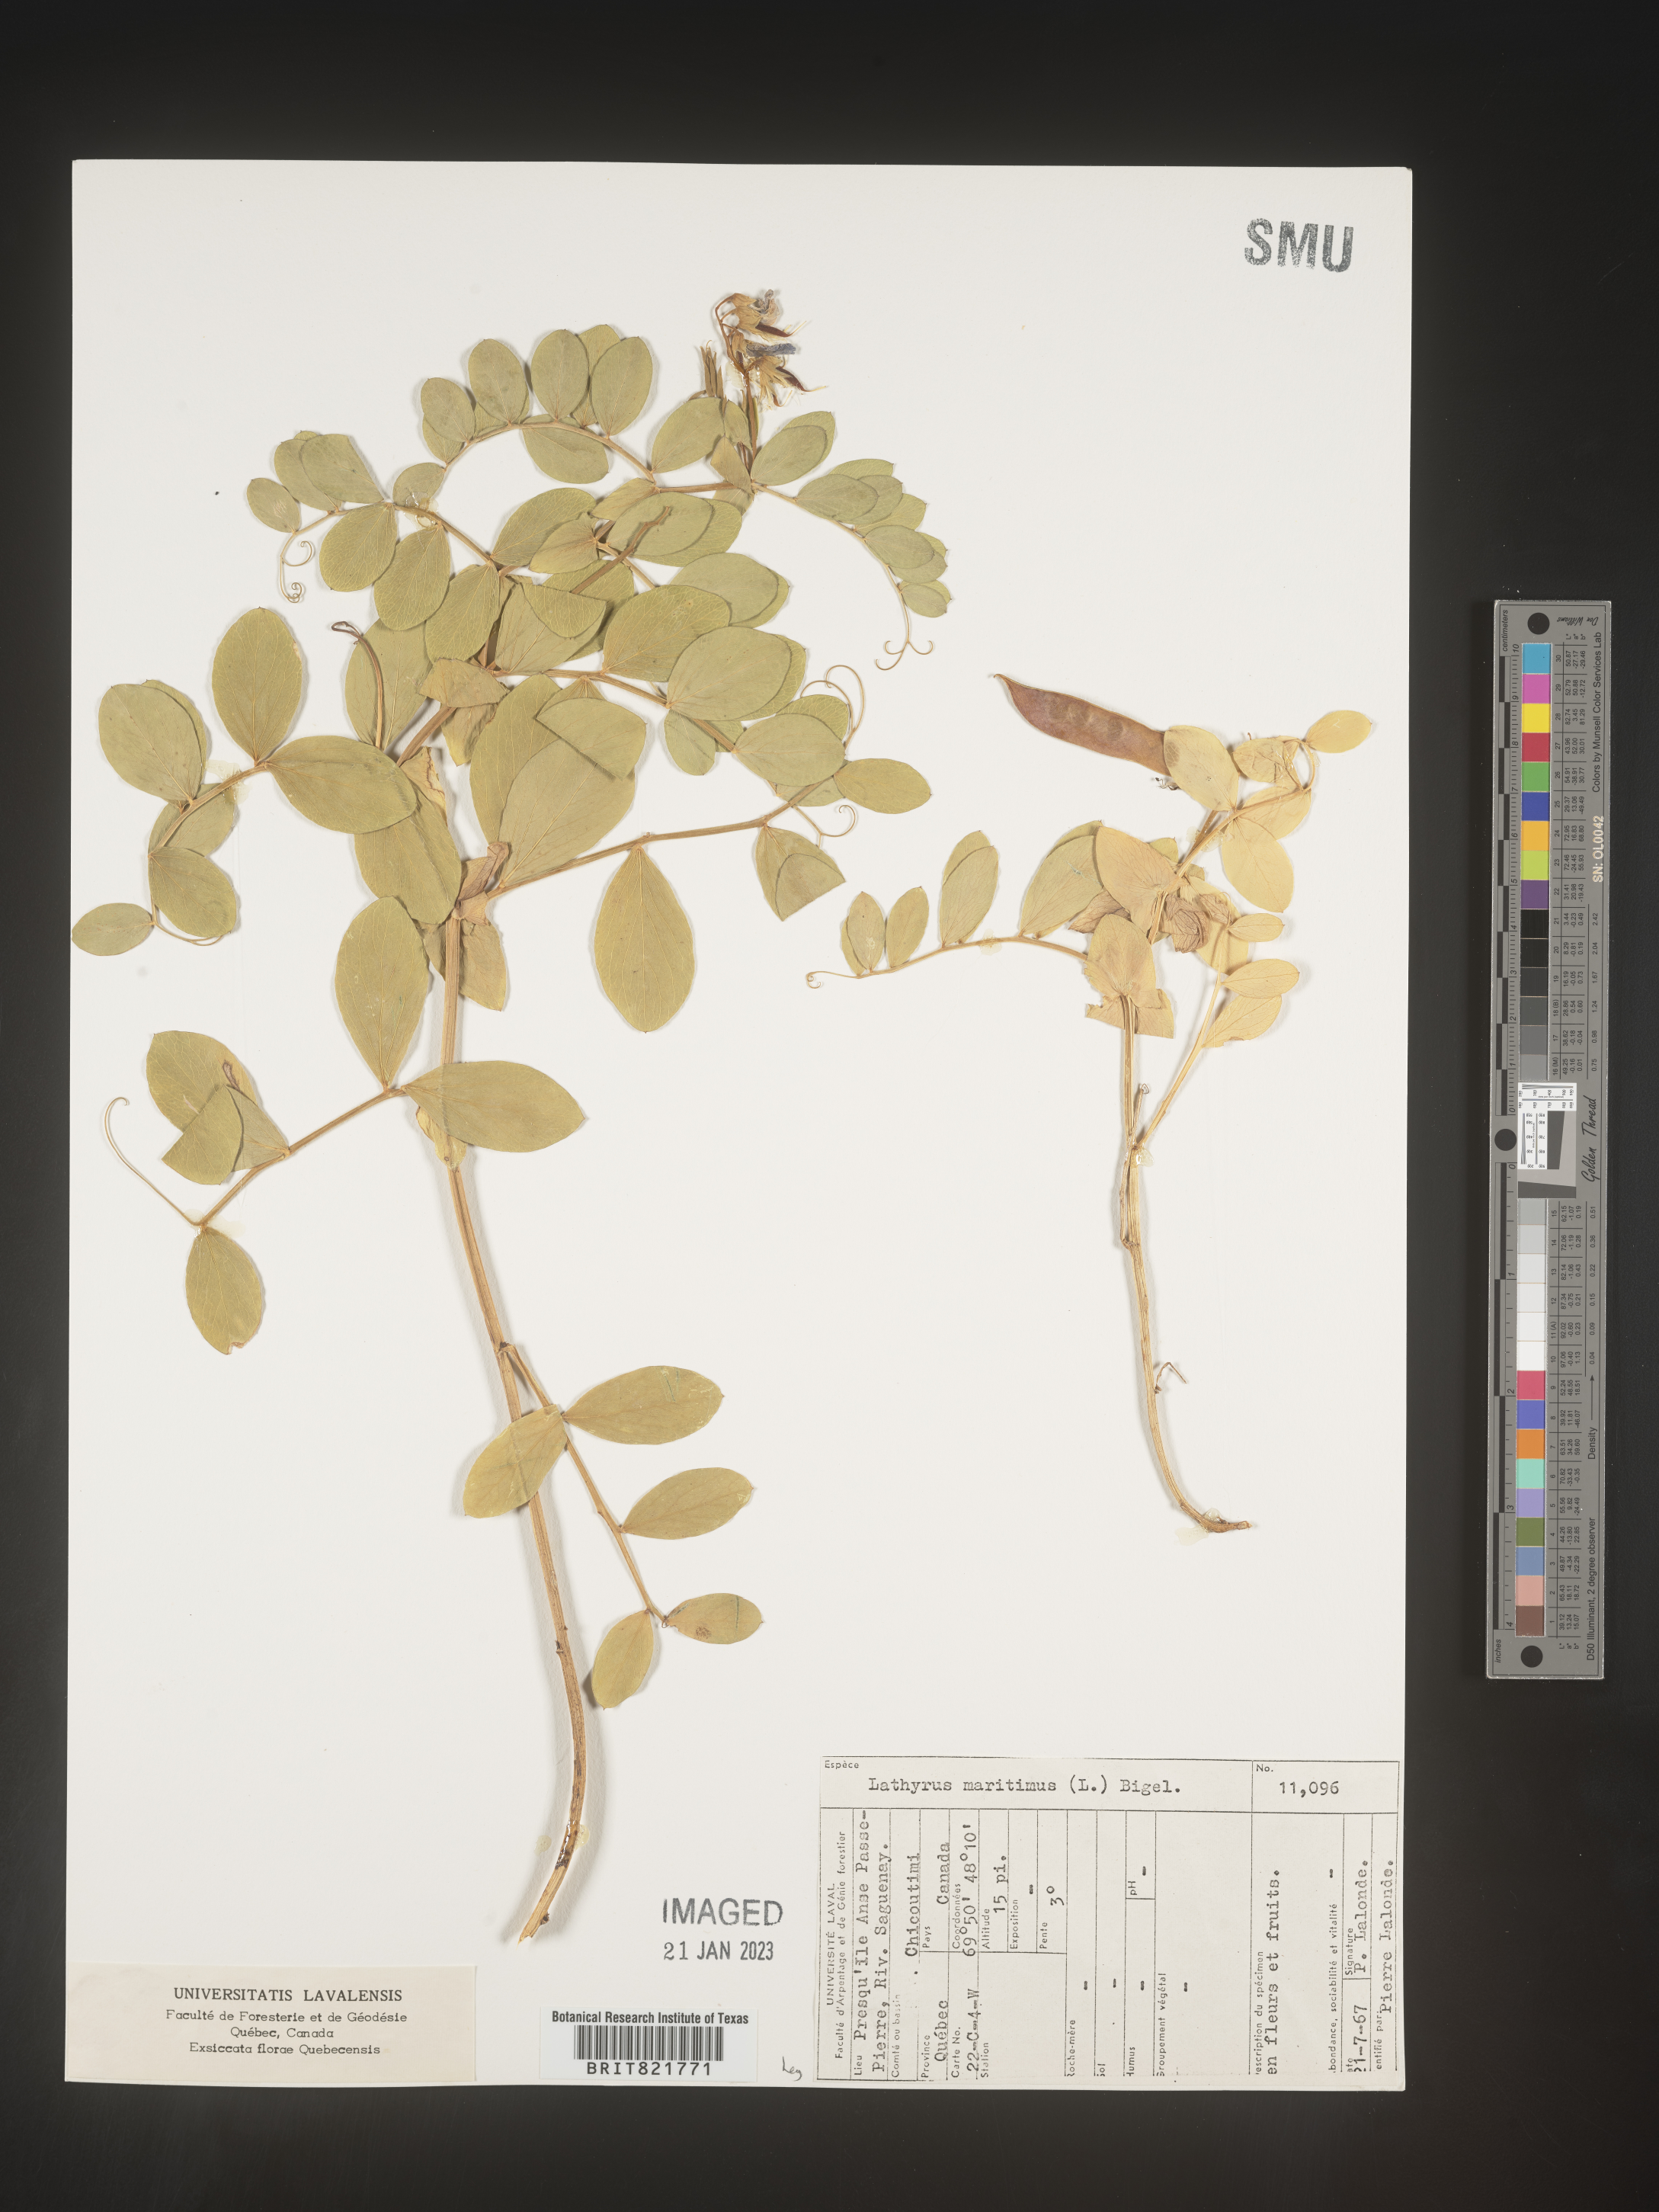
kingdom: Plantae
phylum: Tracheophyta
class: Magnoliopsida
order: Fabales
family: Fabaceae
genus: Lathyrus
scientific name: Lathyrus
